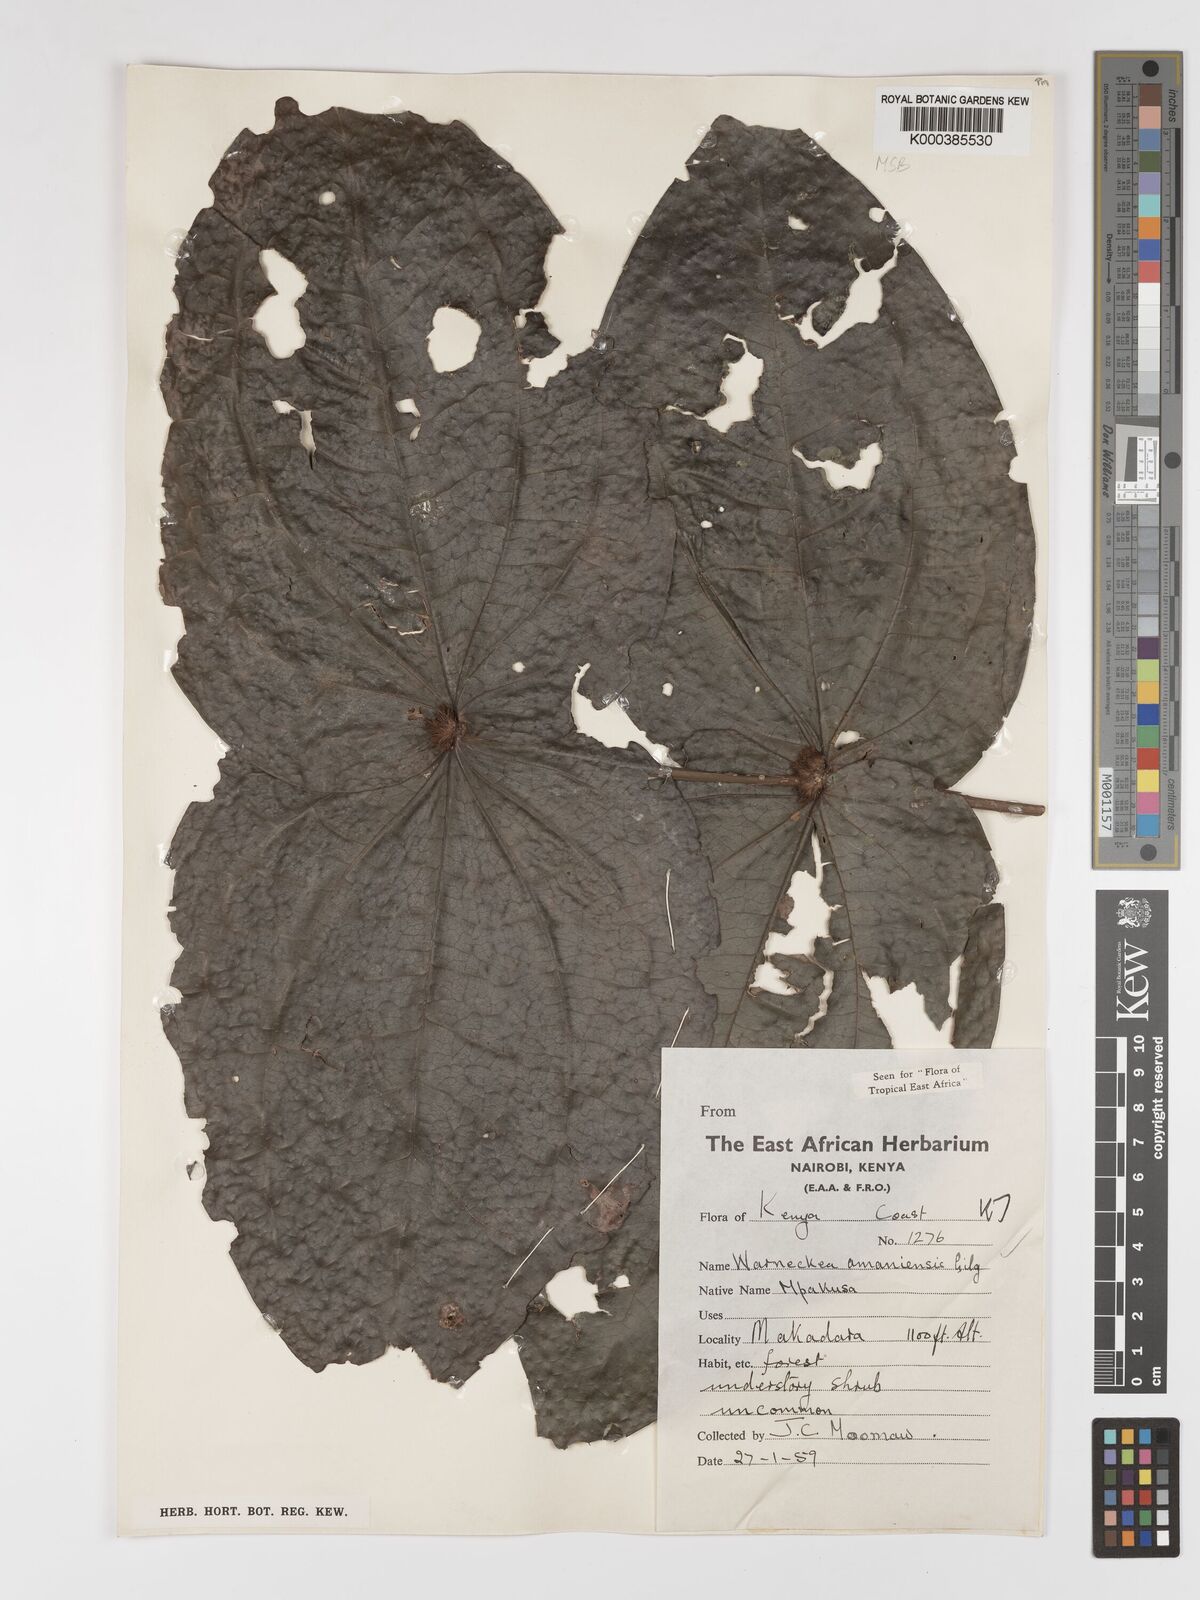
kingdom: Plantae
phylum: Tracheophyta
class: Magnoliopsida
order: Myrtales
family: Melastomataceae
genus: Warneckea
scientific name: Warneckea amaniensis
